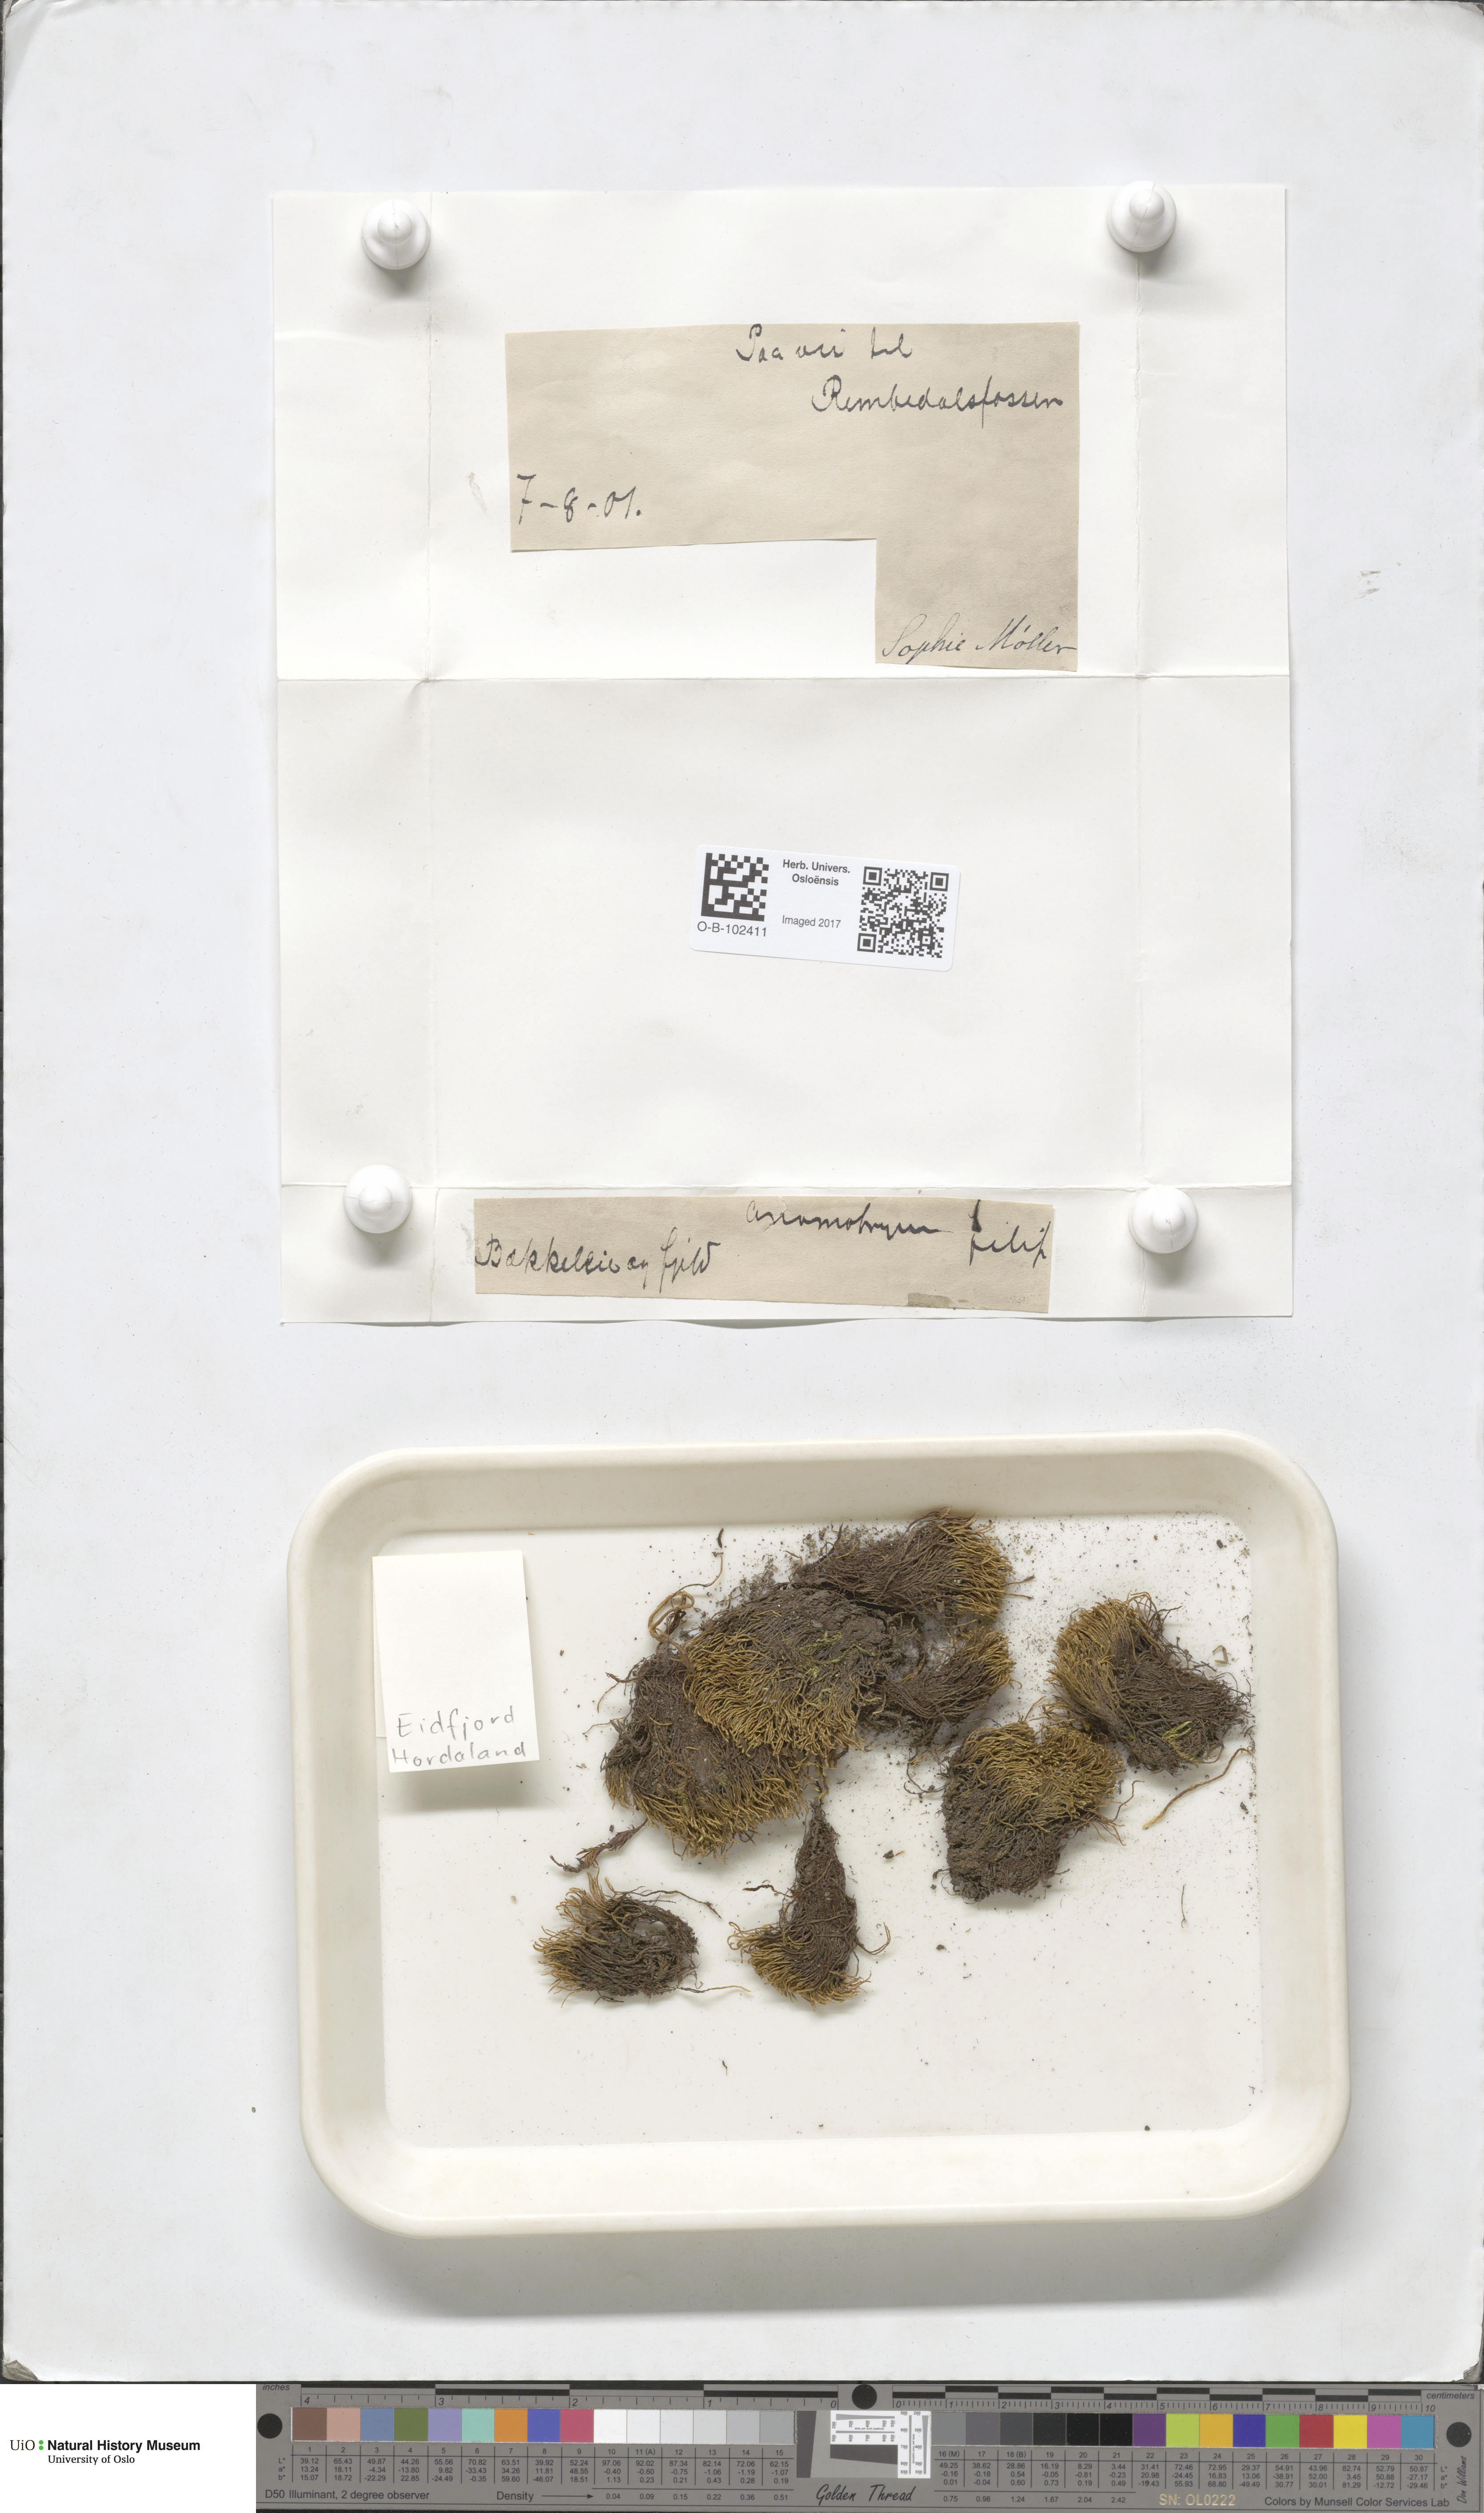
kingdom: Plantae
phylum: Bryophyta
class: Bryopsida
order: Bryales
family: Bryaceae
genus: Anomobryum
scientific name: Anomobryum julaceum
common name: Slender silver moss
